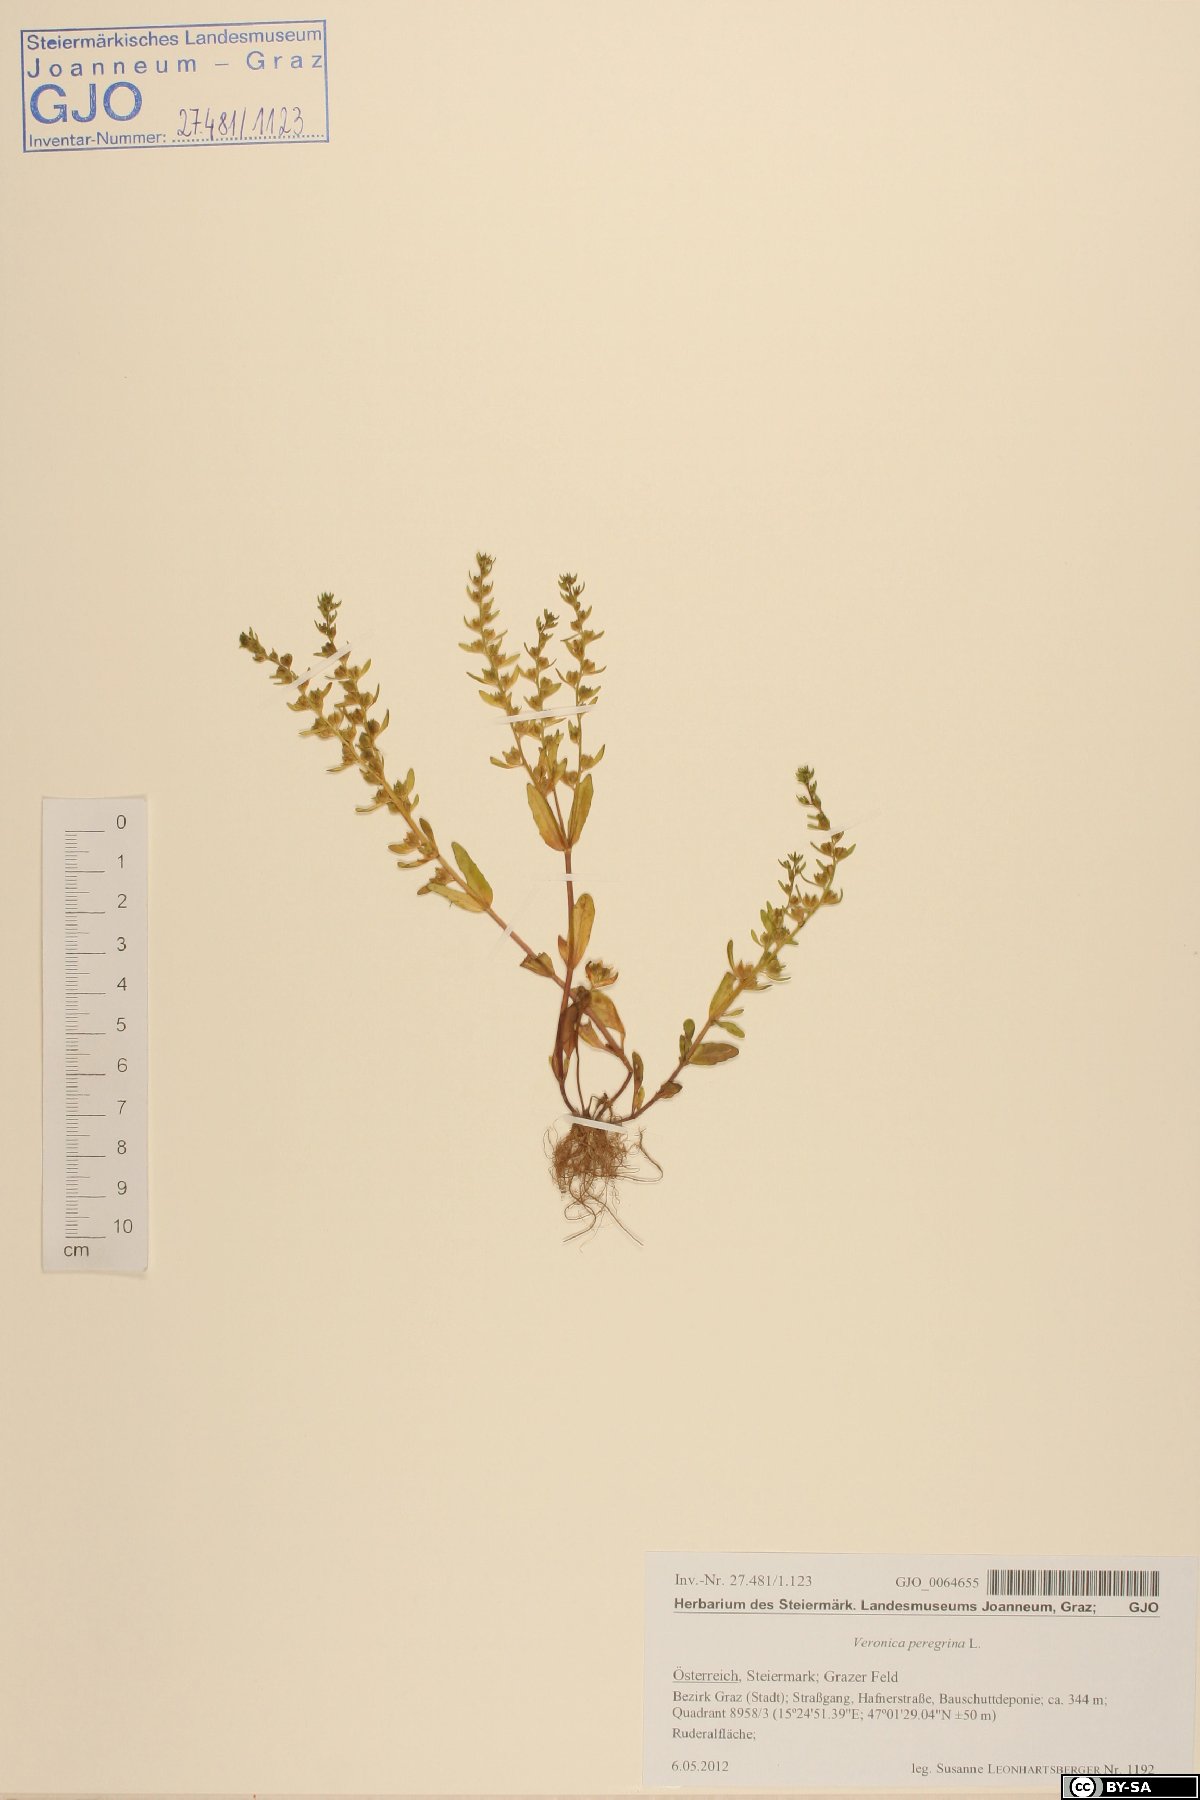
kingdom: Plantae
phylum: Tracheophyta
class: Magnoliopsida
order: Lamiales
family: Plantaginaceae
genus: Veronica
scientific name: Veronica peregrina
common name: Neckweed
